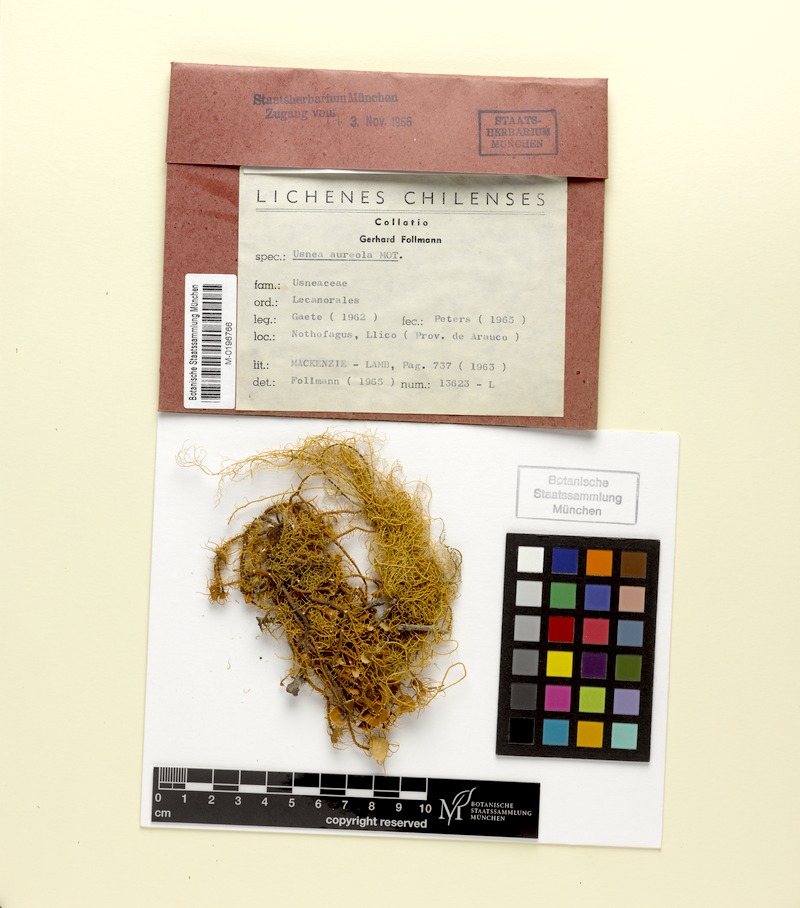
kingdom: Fungi
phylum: Ascomycota
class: Lecanoromycetes
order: Lecanorales
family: Parmeliaceae
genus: Usnea
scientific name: Usnea aureola
